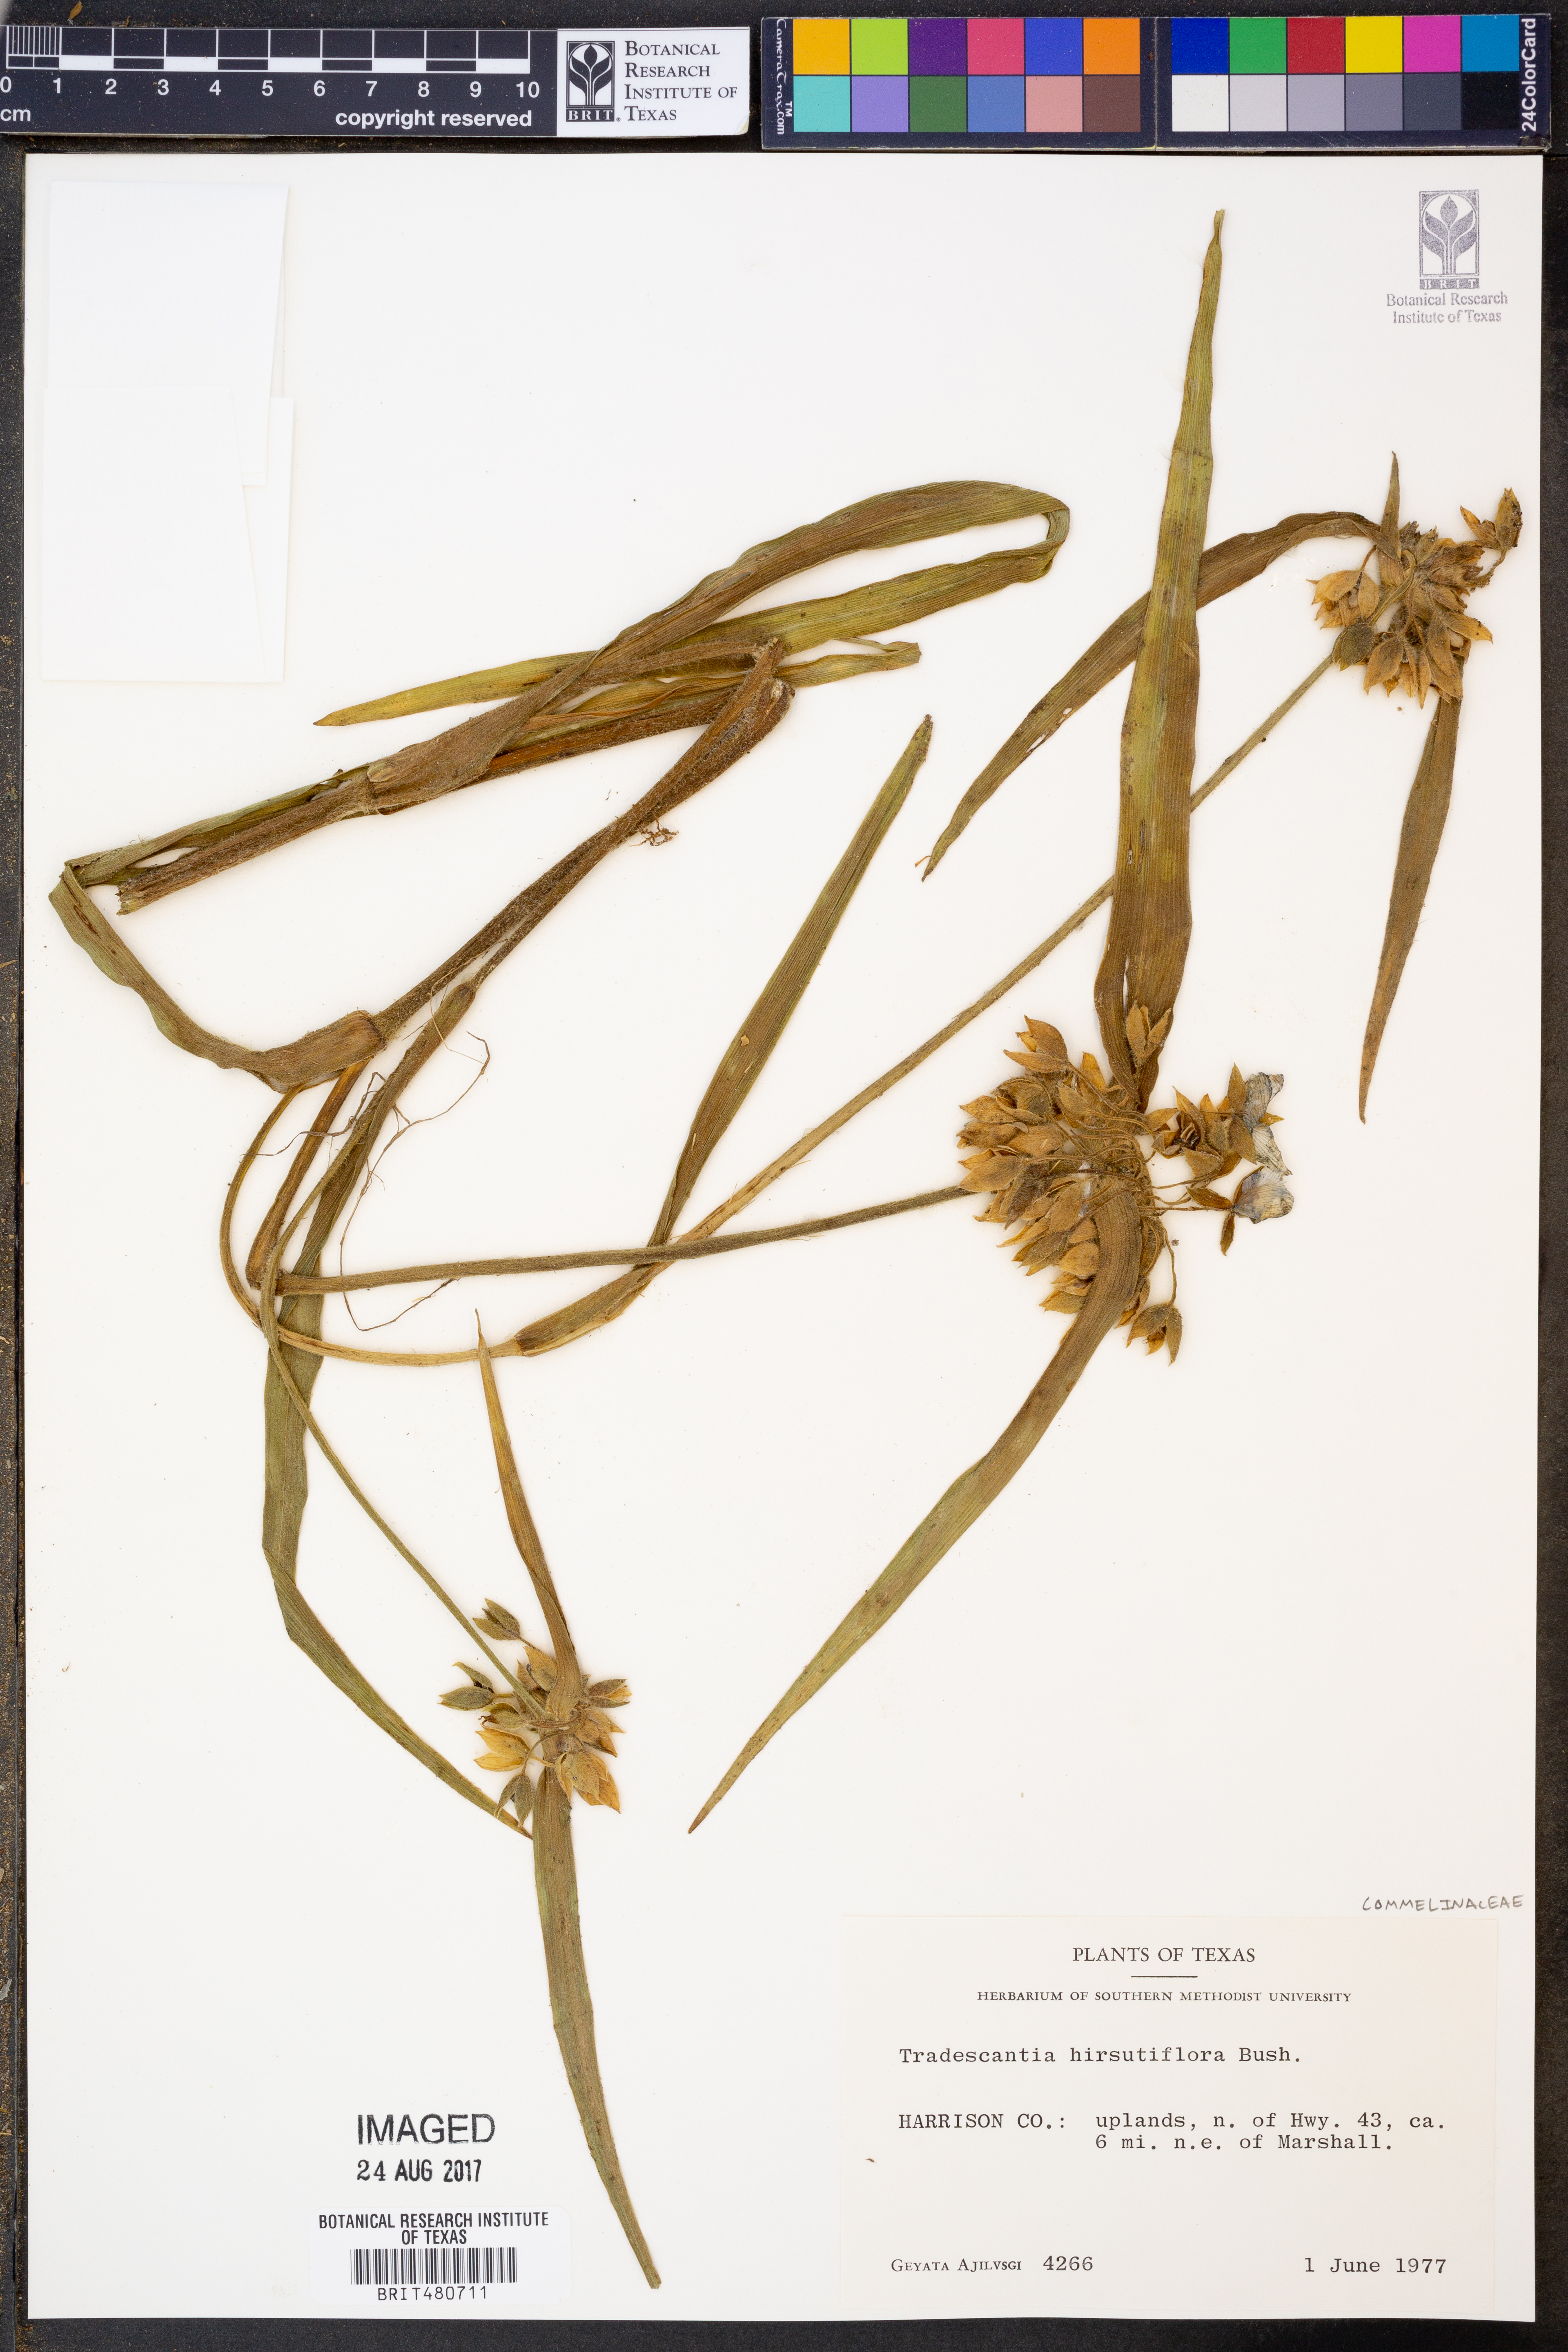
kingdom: Plantae
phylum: Tracheophyta
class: Liliopsida
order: Commelinales
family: Commelinaceae
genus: Tradescantia
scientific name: Tradescantia hirsutiflora
